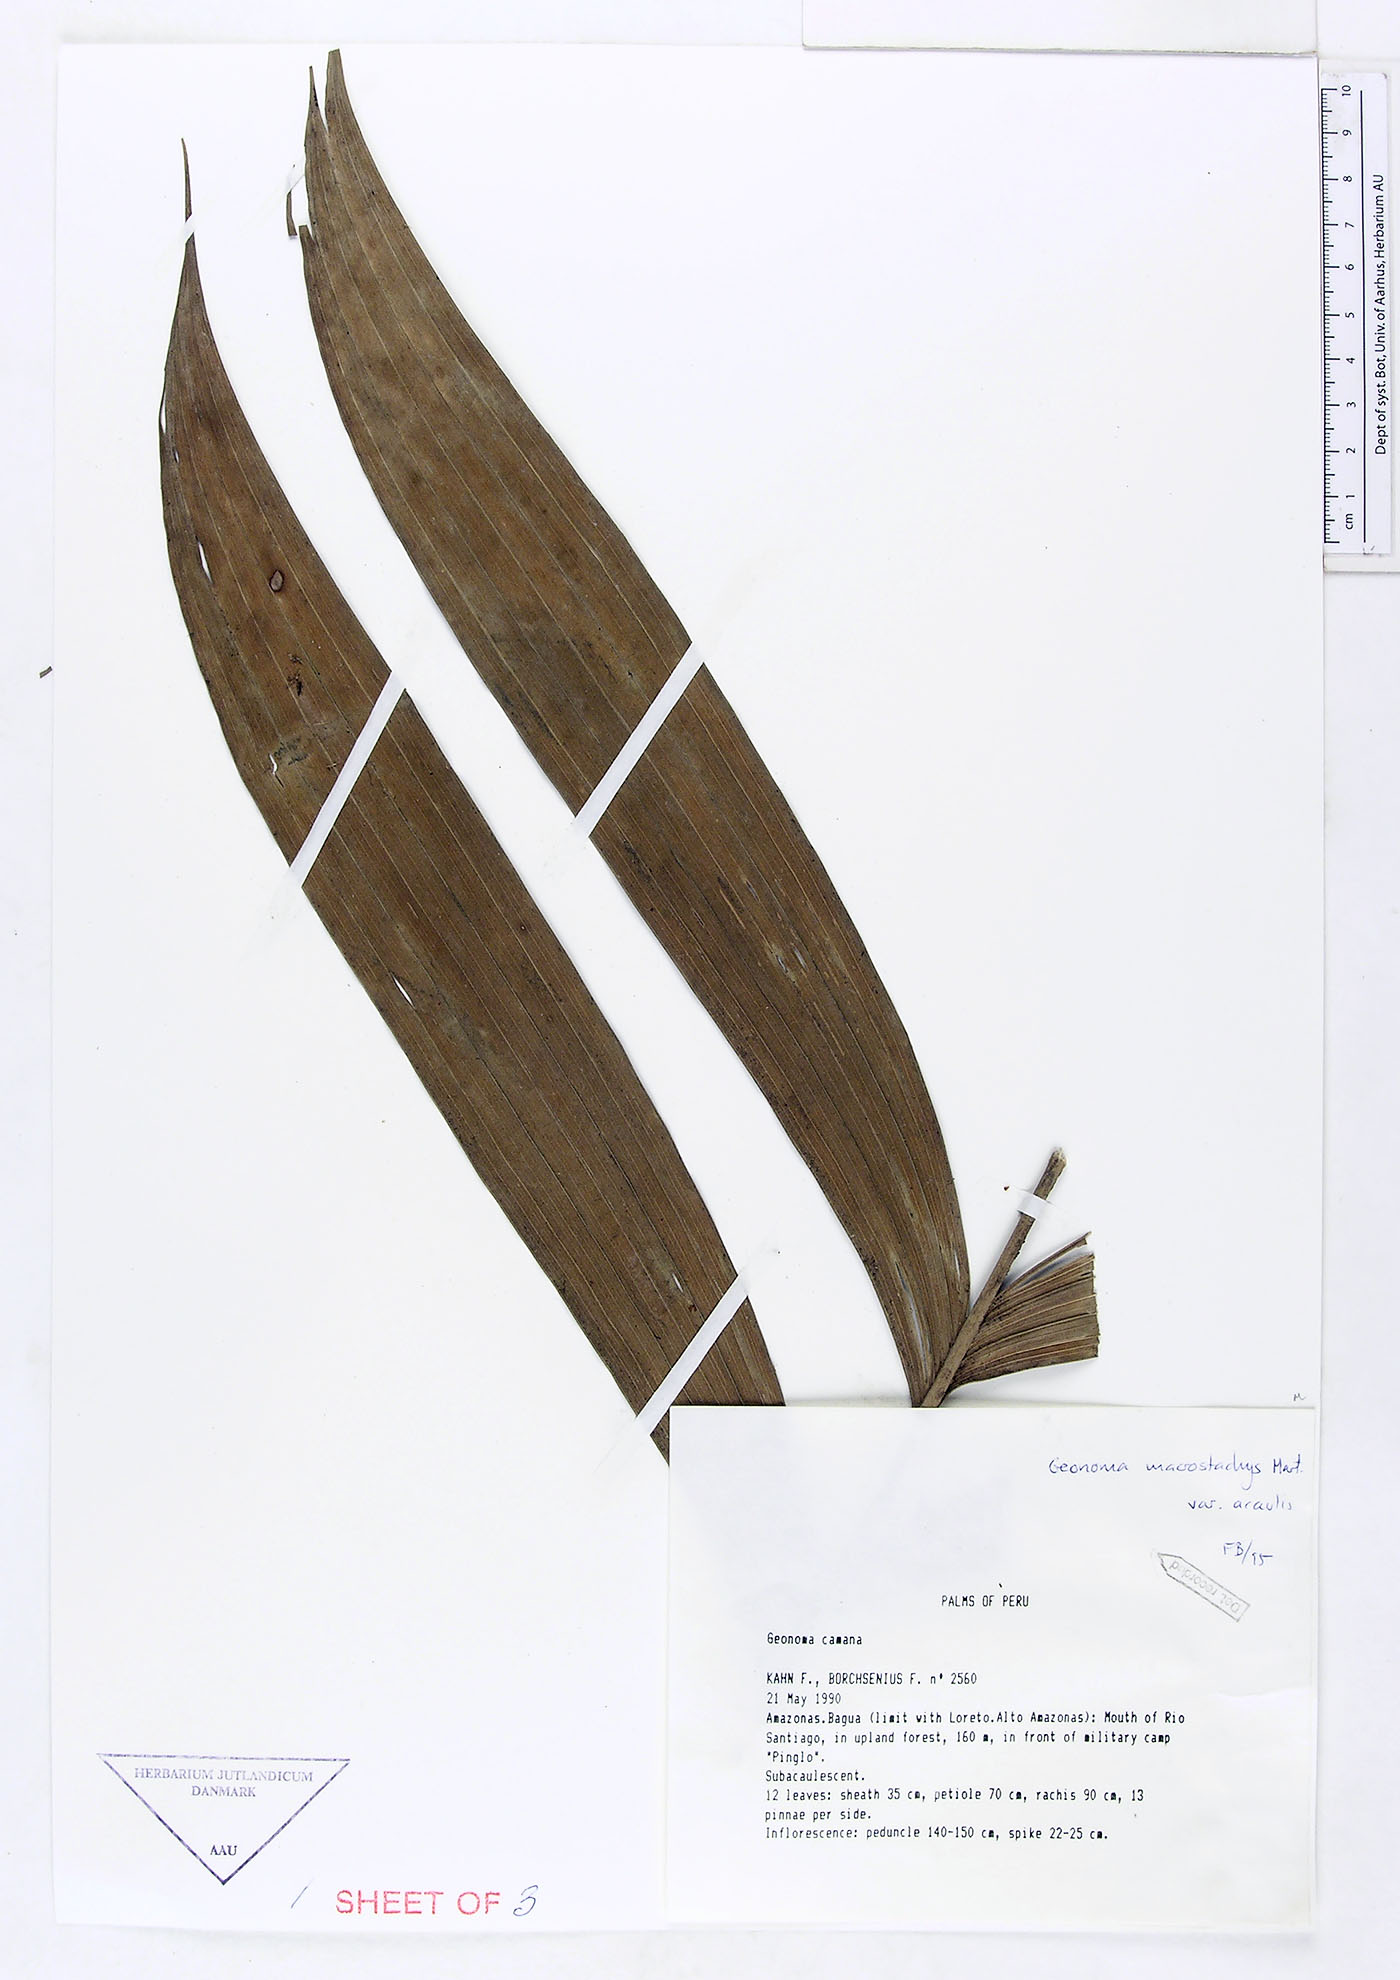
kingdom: Plantae
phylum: Tracheophyta
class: Liliopsida
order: Arecales
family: Arecaceae
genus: Geonoma
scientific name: Geonoma macrostachys
